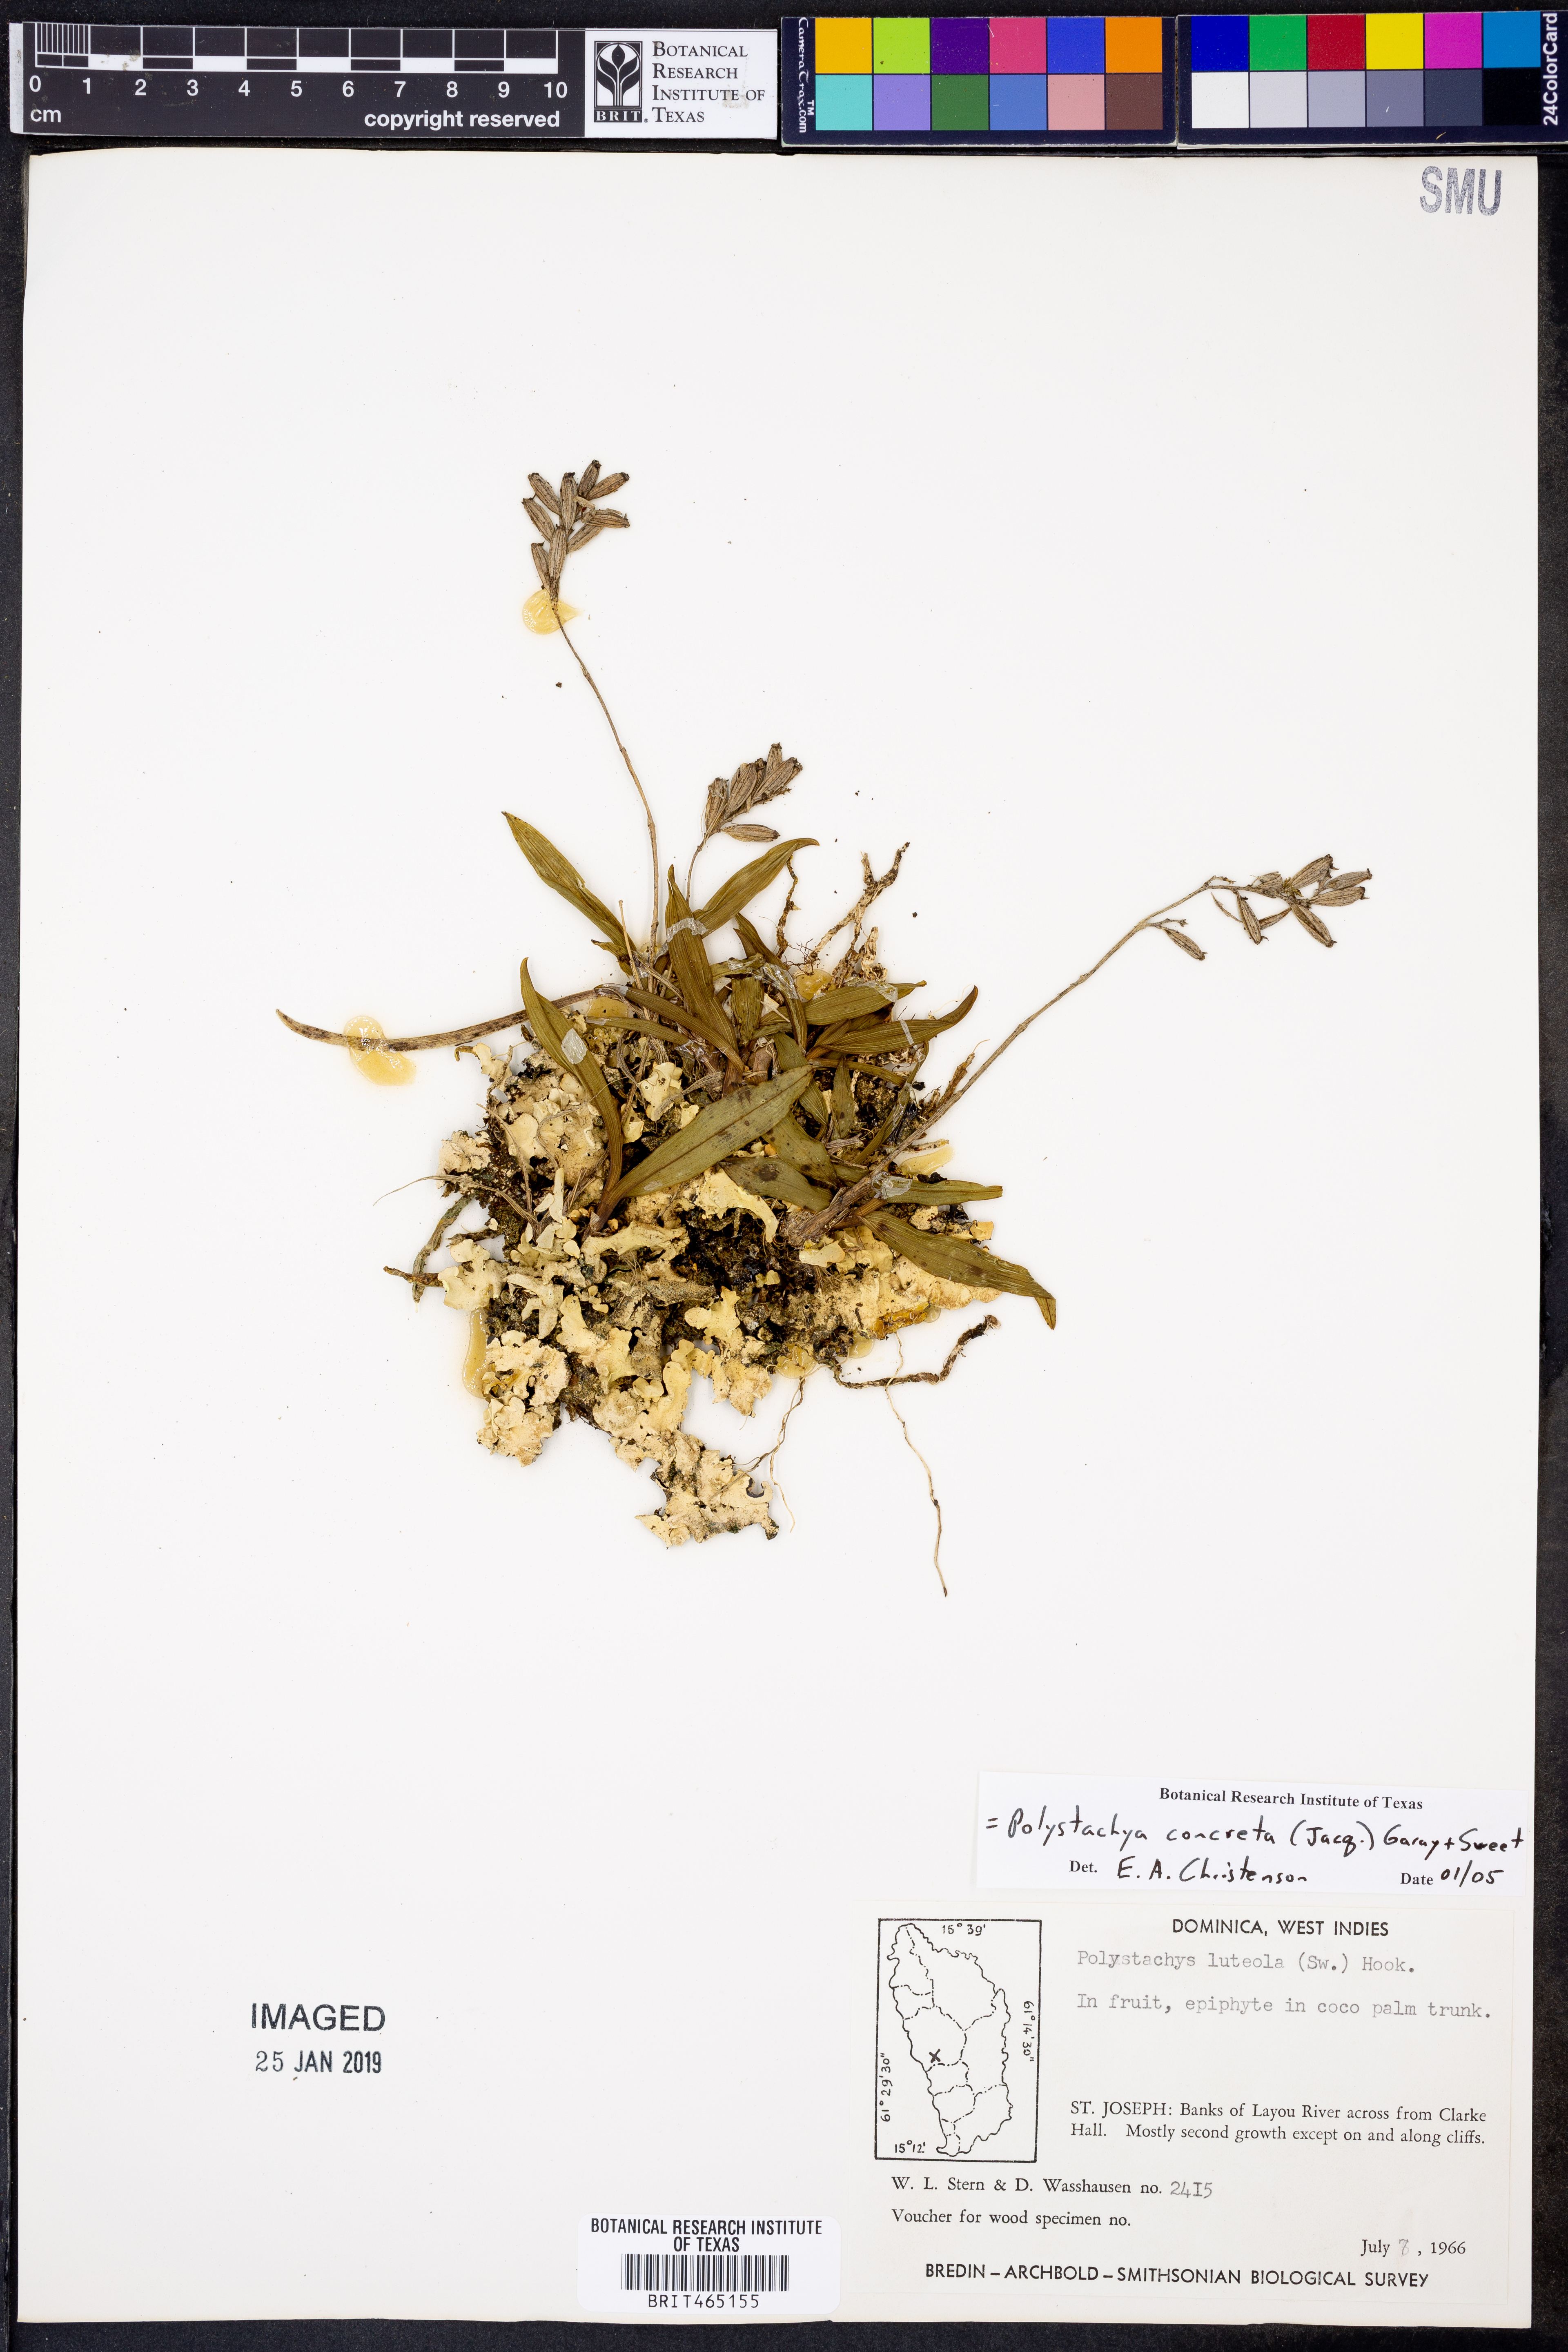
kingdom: Plantae
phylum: Tracheophyta
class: Liliopsida
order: Asparagales
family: Orchidaceae
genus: Polystachya
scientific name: Polystachya concreta
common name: Greater yellowspike orchid
